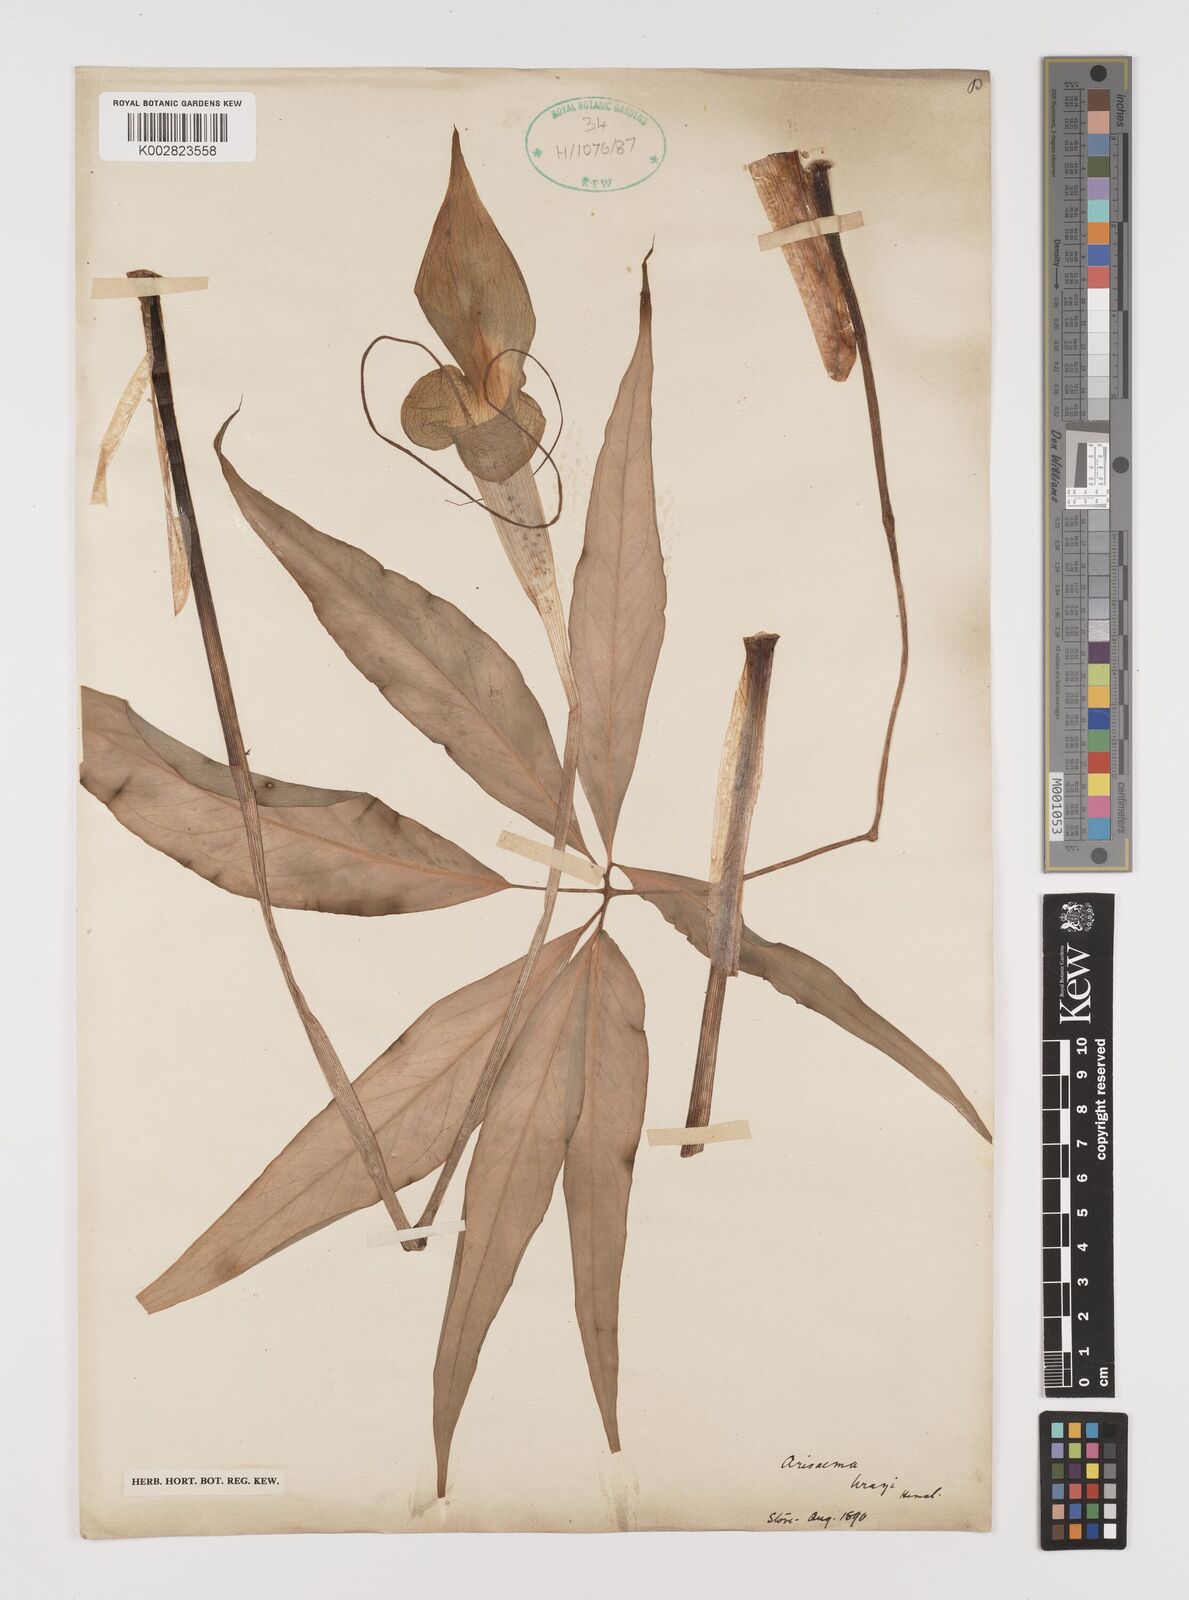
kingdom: Plantae
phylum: Tracheophyta
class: Liliopsida
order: Alismatales
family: Araceae
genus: Arisaema
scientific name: Arisaema wrayi
